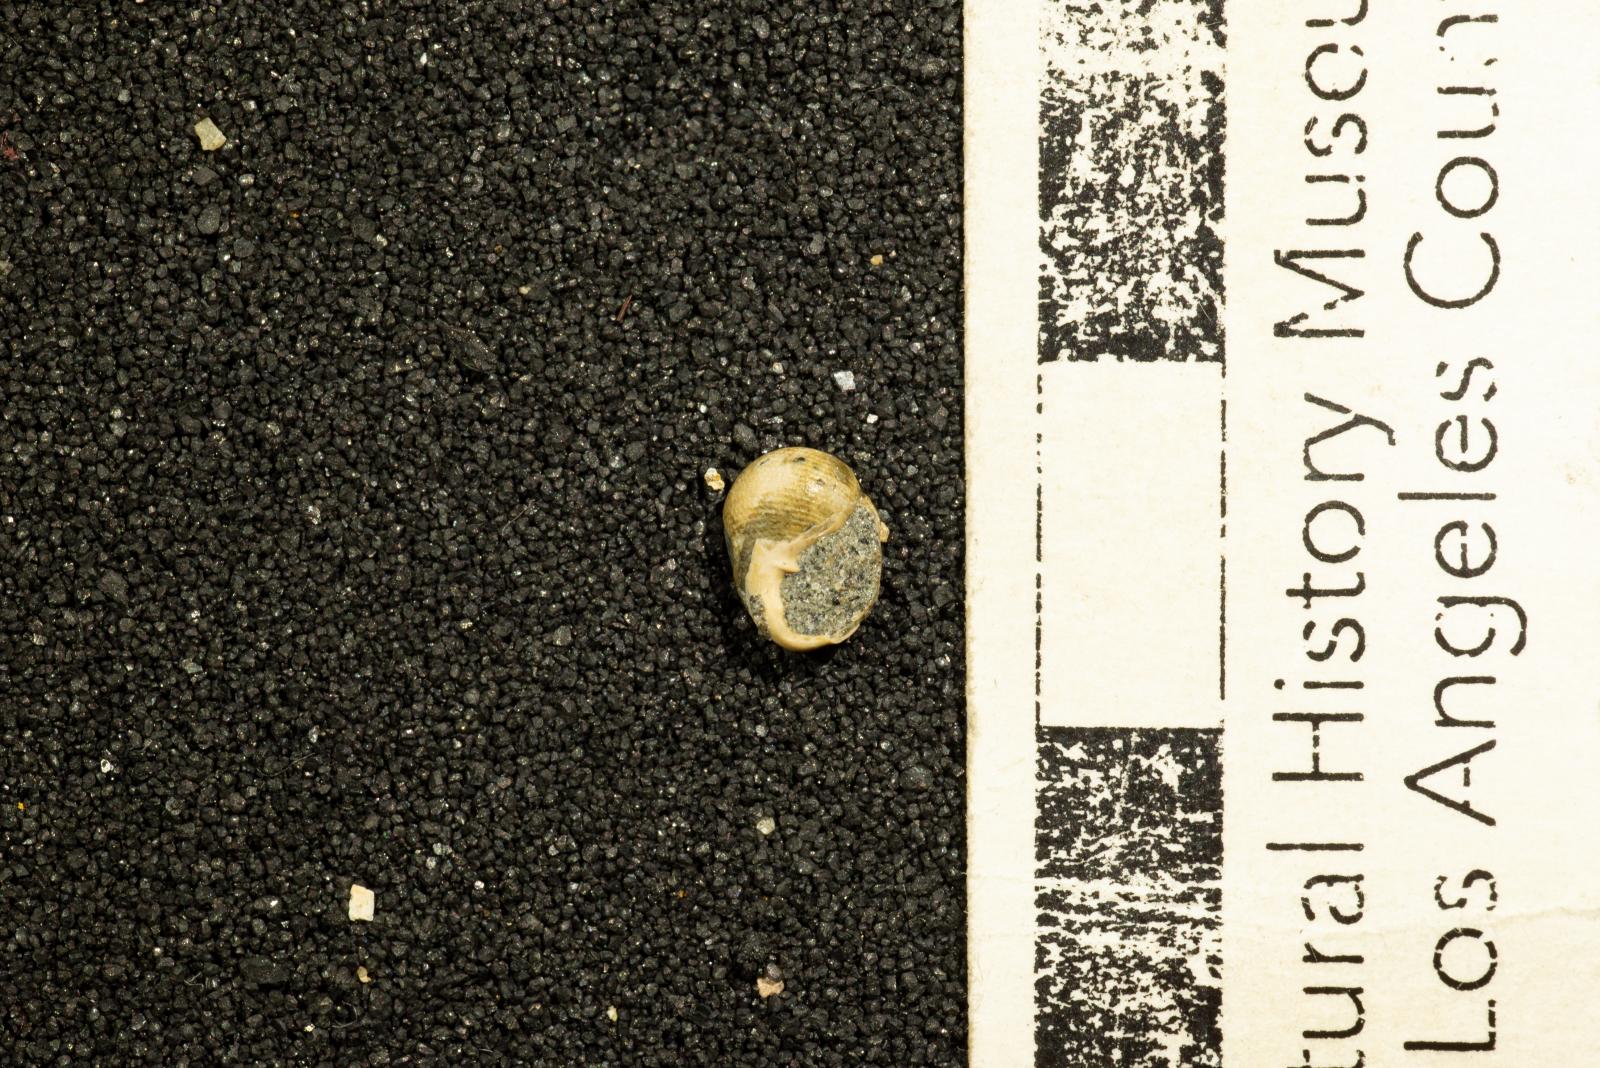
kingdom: Animalia
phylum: Mollusca
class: Gastropoda
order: Cephalaspidea
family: Ringiculidae
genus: Biplica
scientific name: Biplica heteroplicata
